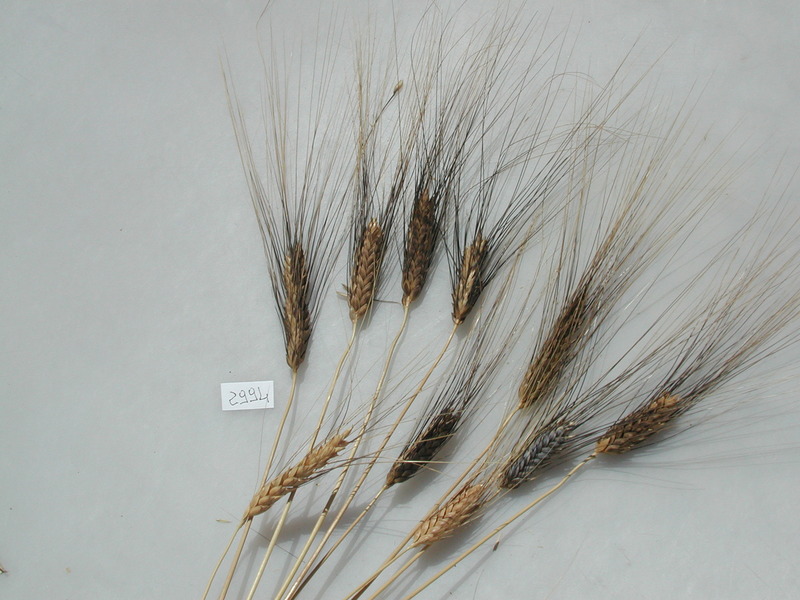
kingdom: Plantae
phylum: Tracheophyta
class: Liliopsida
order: Poales
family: Poaceae
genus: Triticum
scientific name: Triticum turgidum
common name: Wheat
